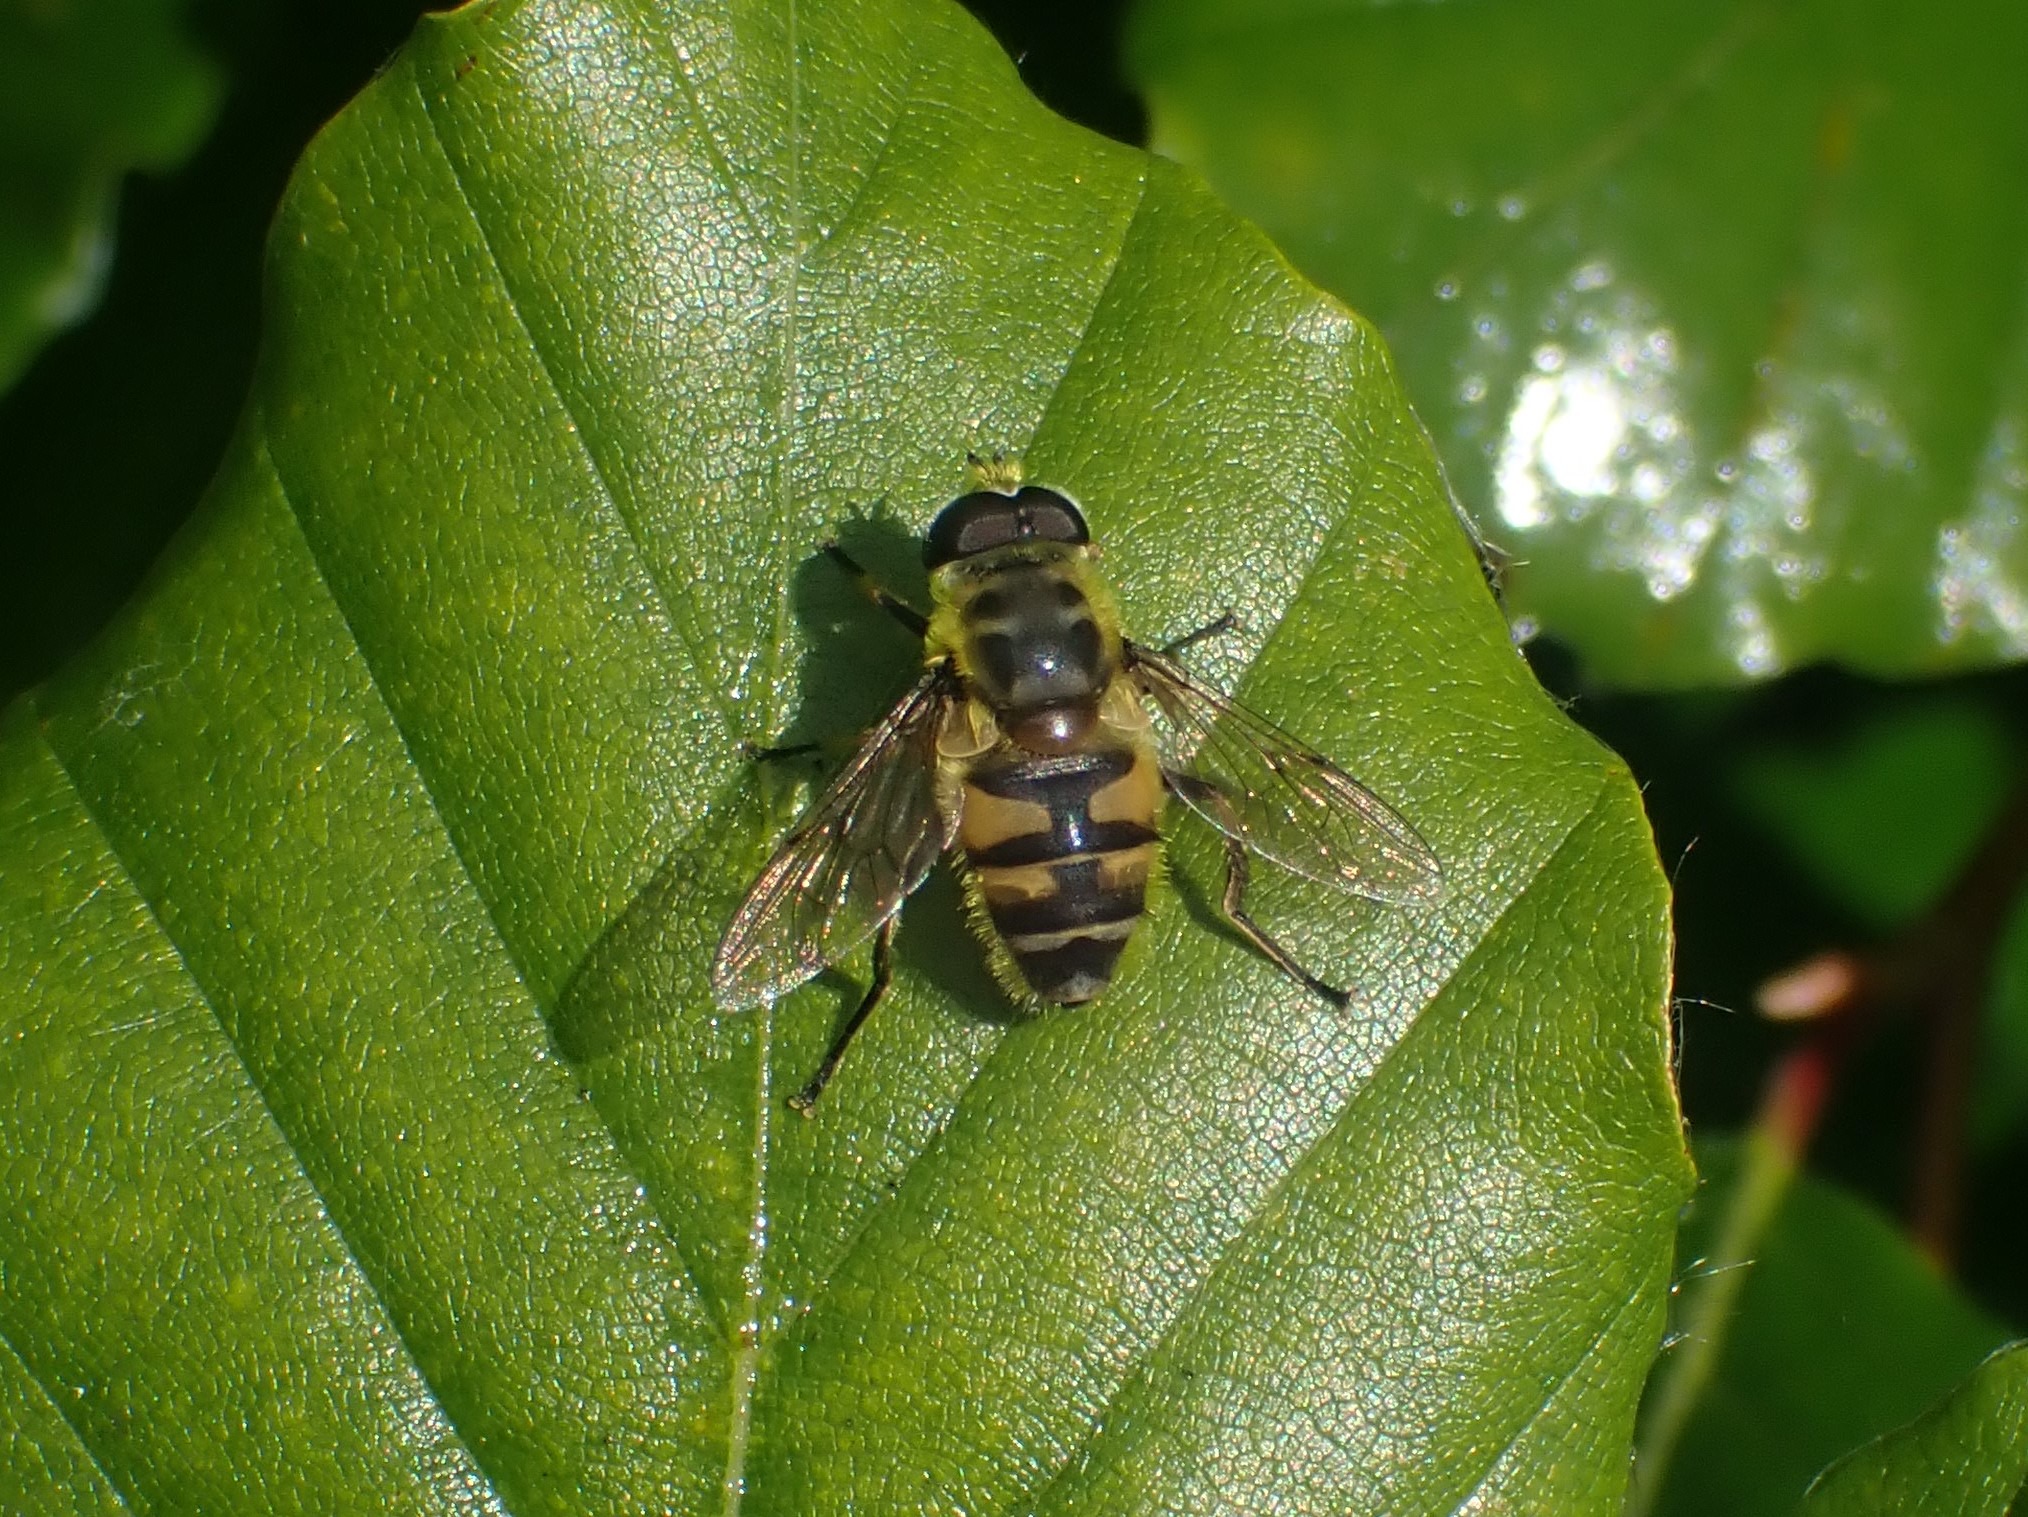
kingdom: Animalia
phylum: Arthropoda
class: Insecta
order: Diptera
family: Syrphidae
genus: Myathropa
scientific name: Myathropa florea
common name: Dødningehoved-svirreflue
